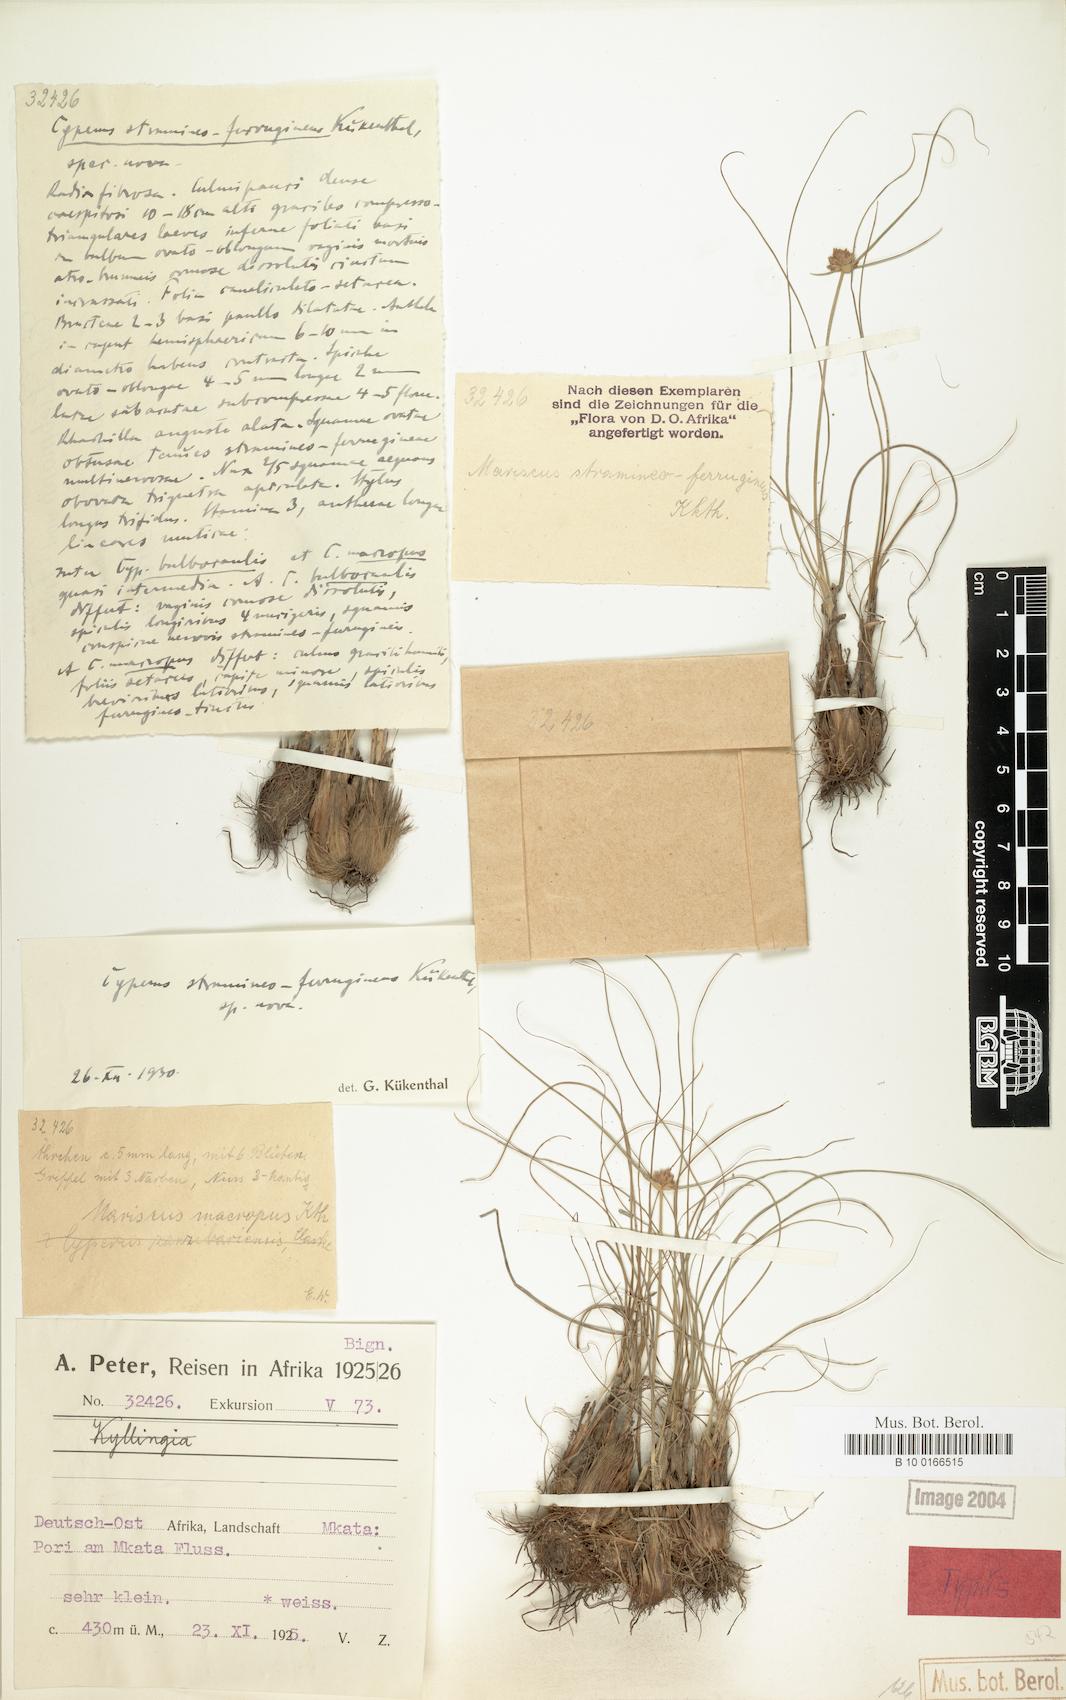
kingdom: Plantae
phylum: Tracheophyta
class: Liliopsida
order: Poales
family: Cyperaceae
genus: Cyperus
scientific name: Cyperus stramineoferrugineus
